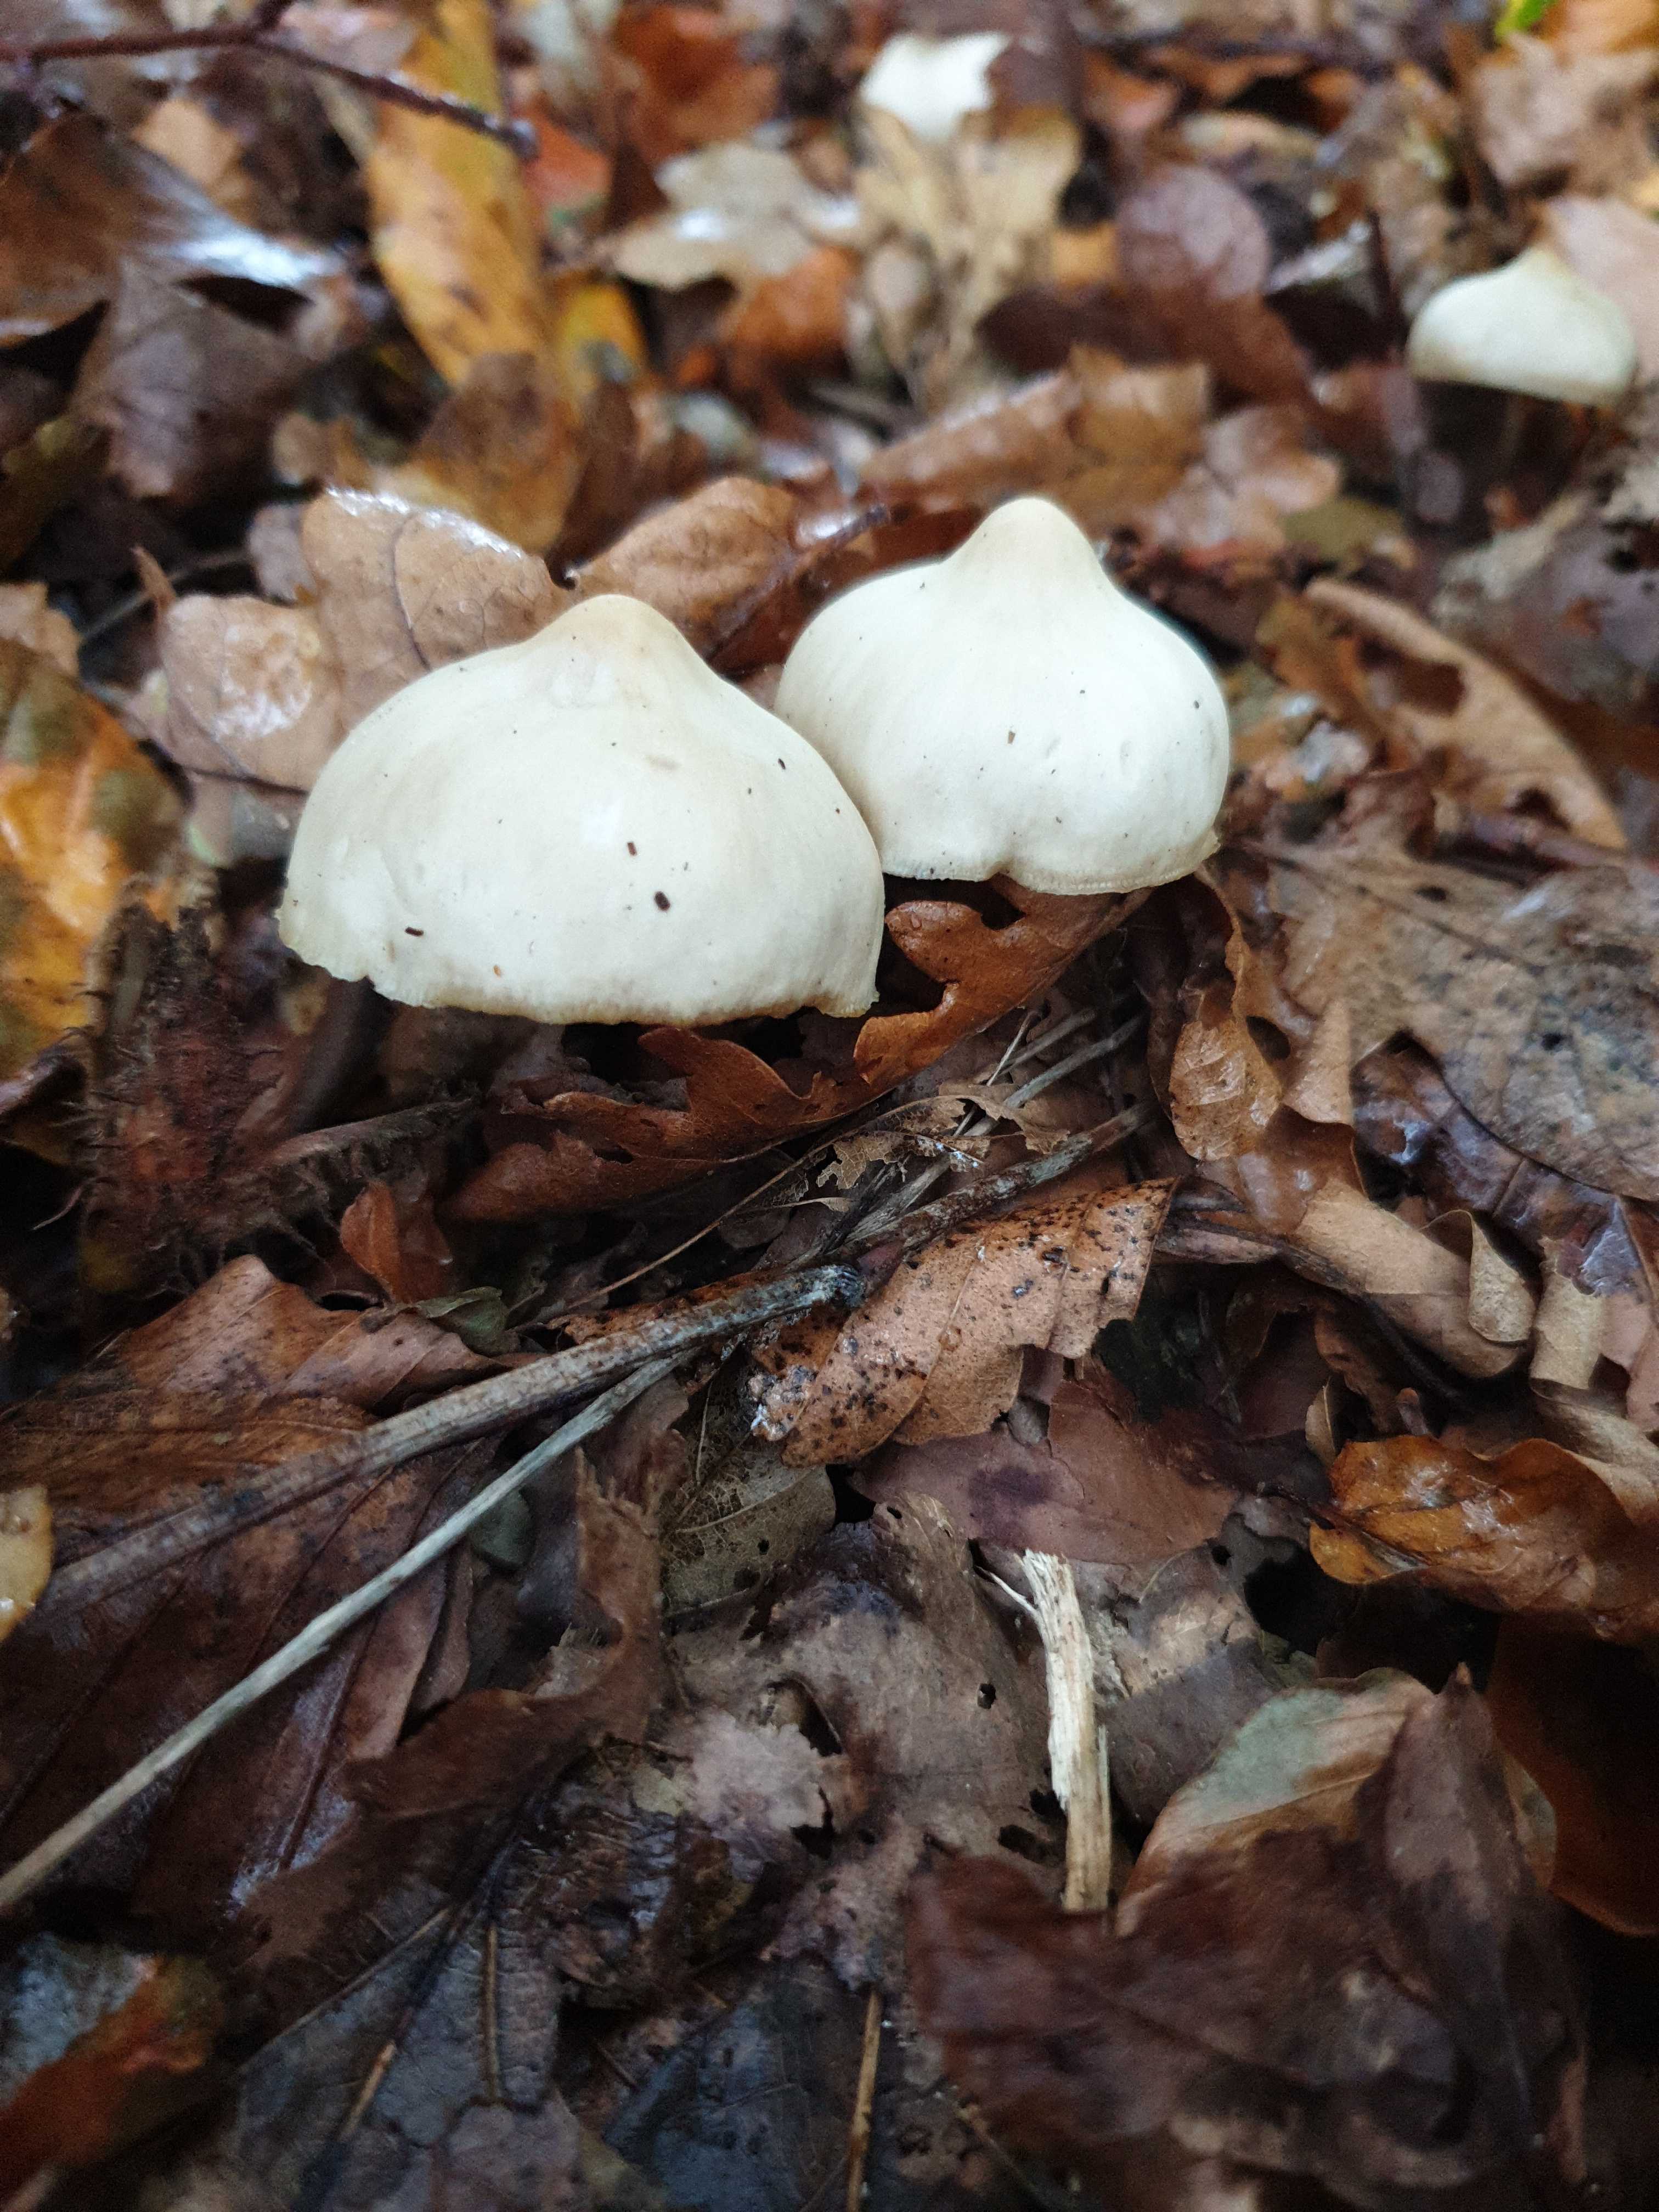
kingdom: Fungi
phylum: Basidiomycota
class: Agaricomycetes
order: Agaricales
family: Omphalotaceae
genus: Rhodocollybia
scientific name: Rhodocollybia asema
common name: horngrå fladhat
